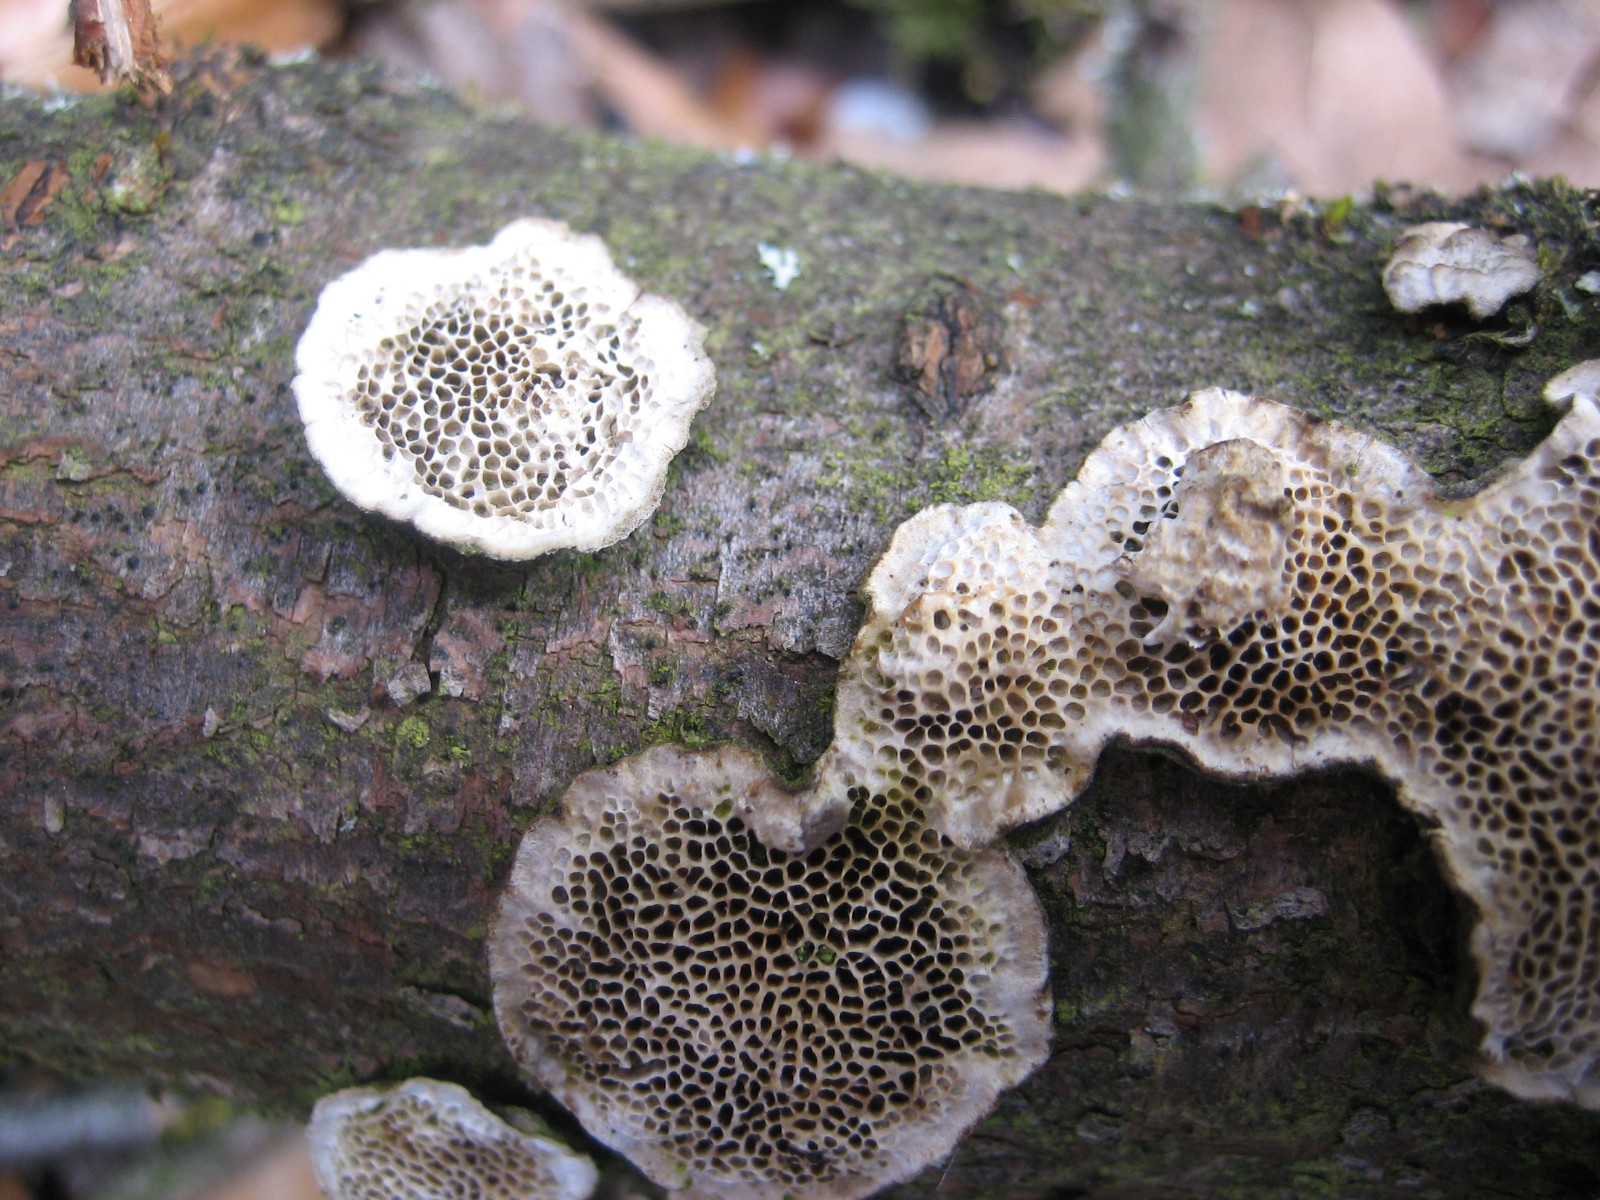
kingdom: Fungi
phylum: Basidiomycota
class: Agaricomycetes
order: Polyporales
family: Polyporaceae
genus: Podofomes
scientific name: Podofomes mollis
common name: blød begporesvamp
